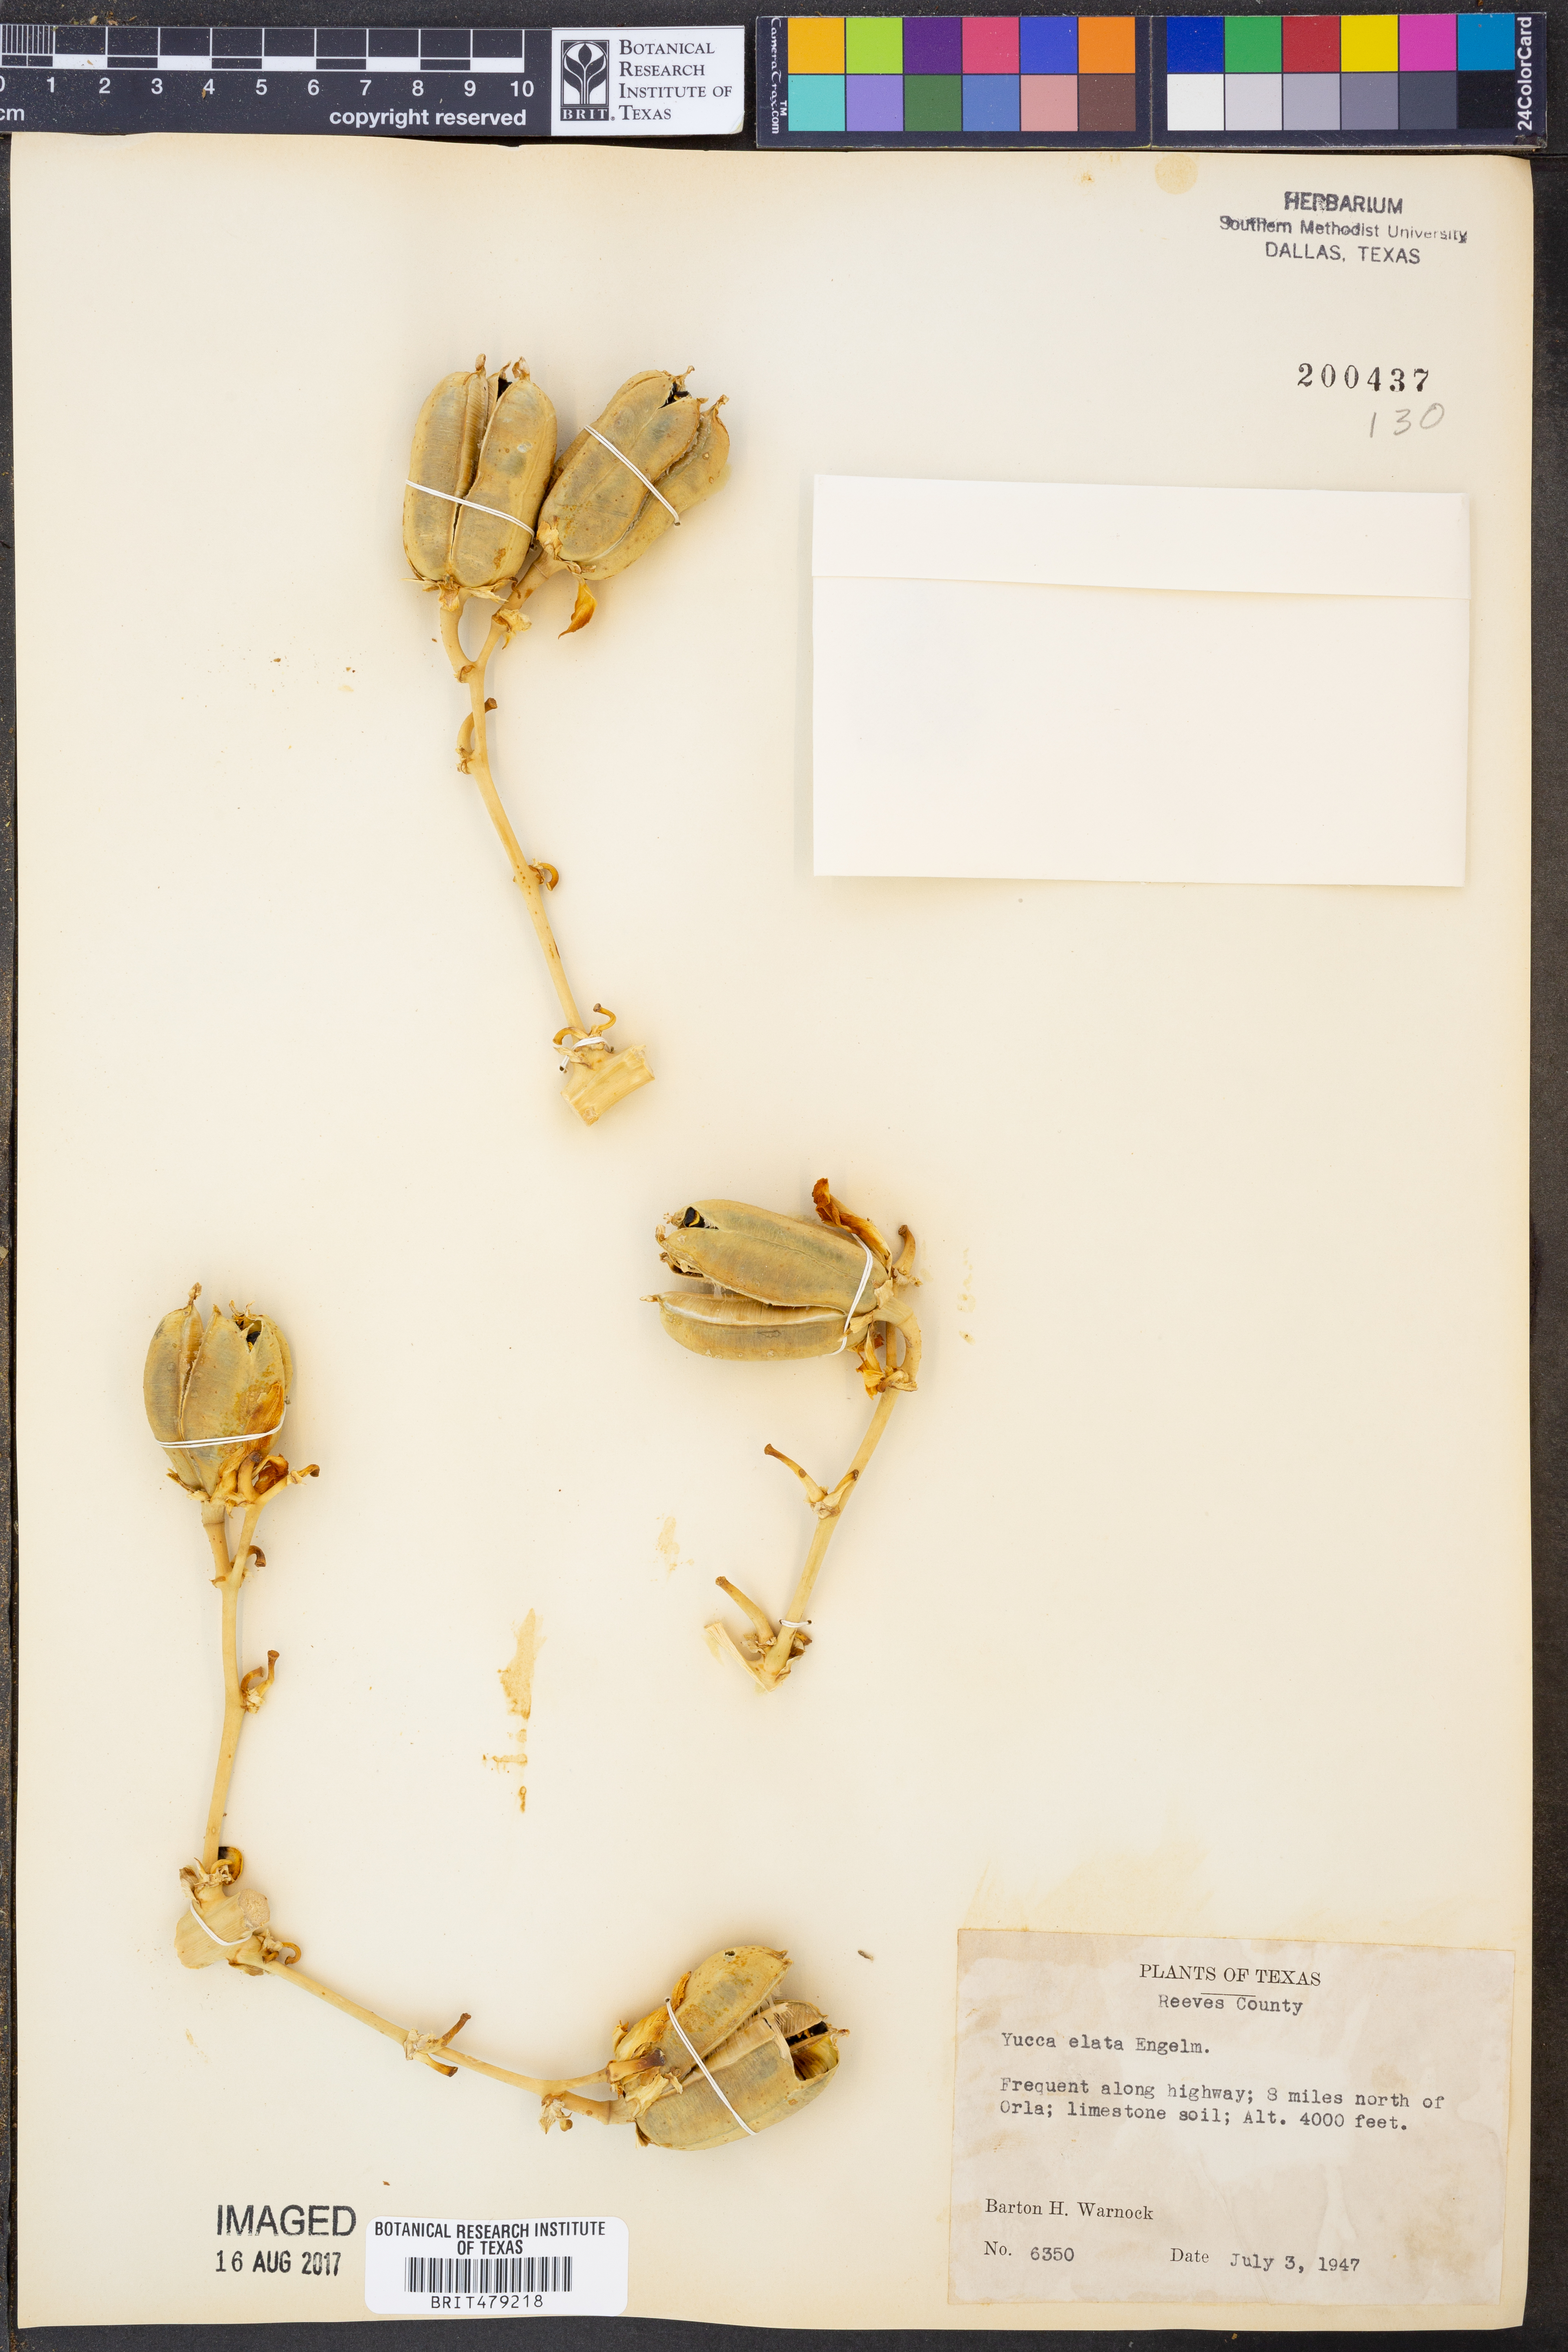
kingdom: Plantae
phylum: Tracheophyta
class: Liliopsida
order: Asparagales
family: Asparagaceae
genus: Yucca
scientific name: Yucca elata
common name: Palmella
